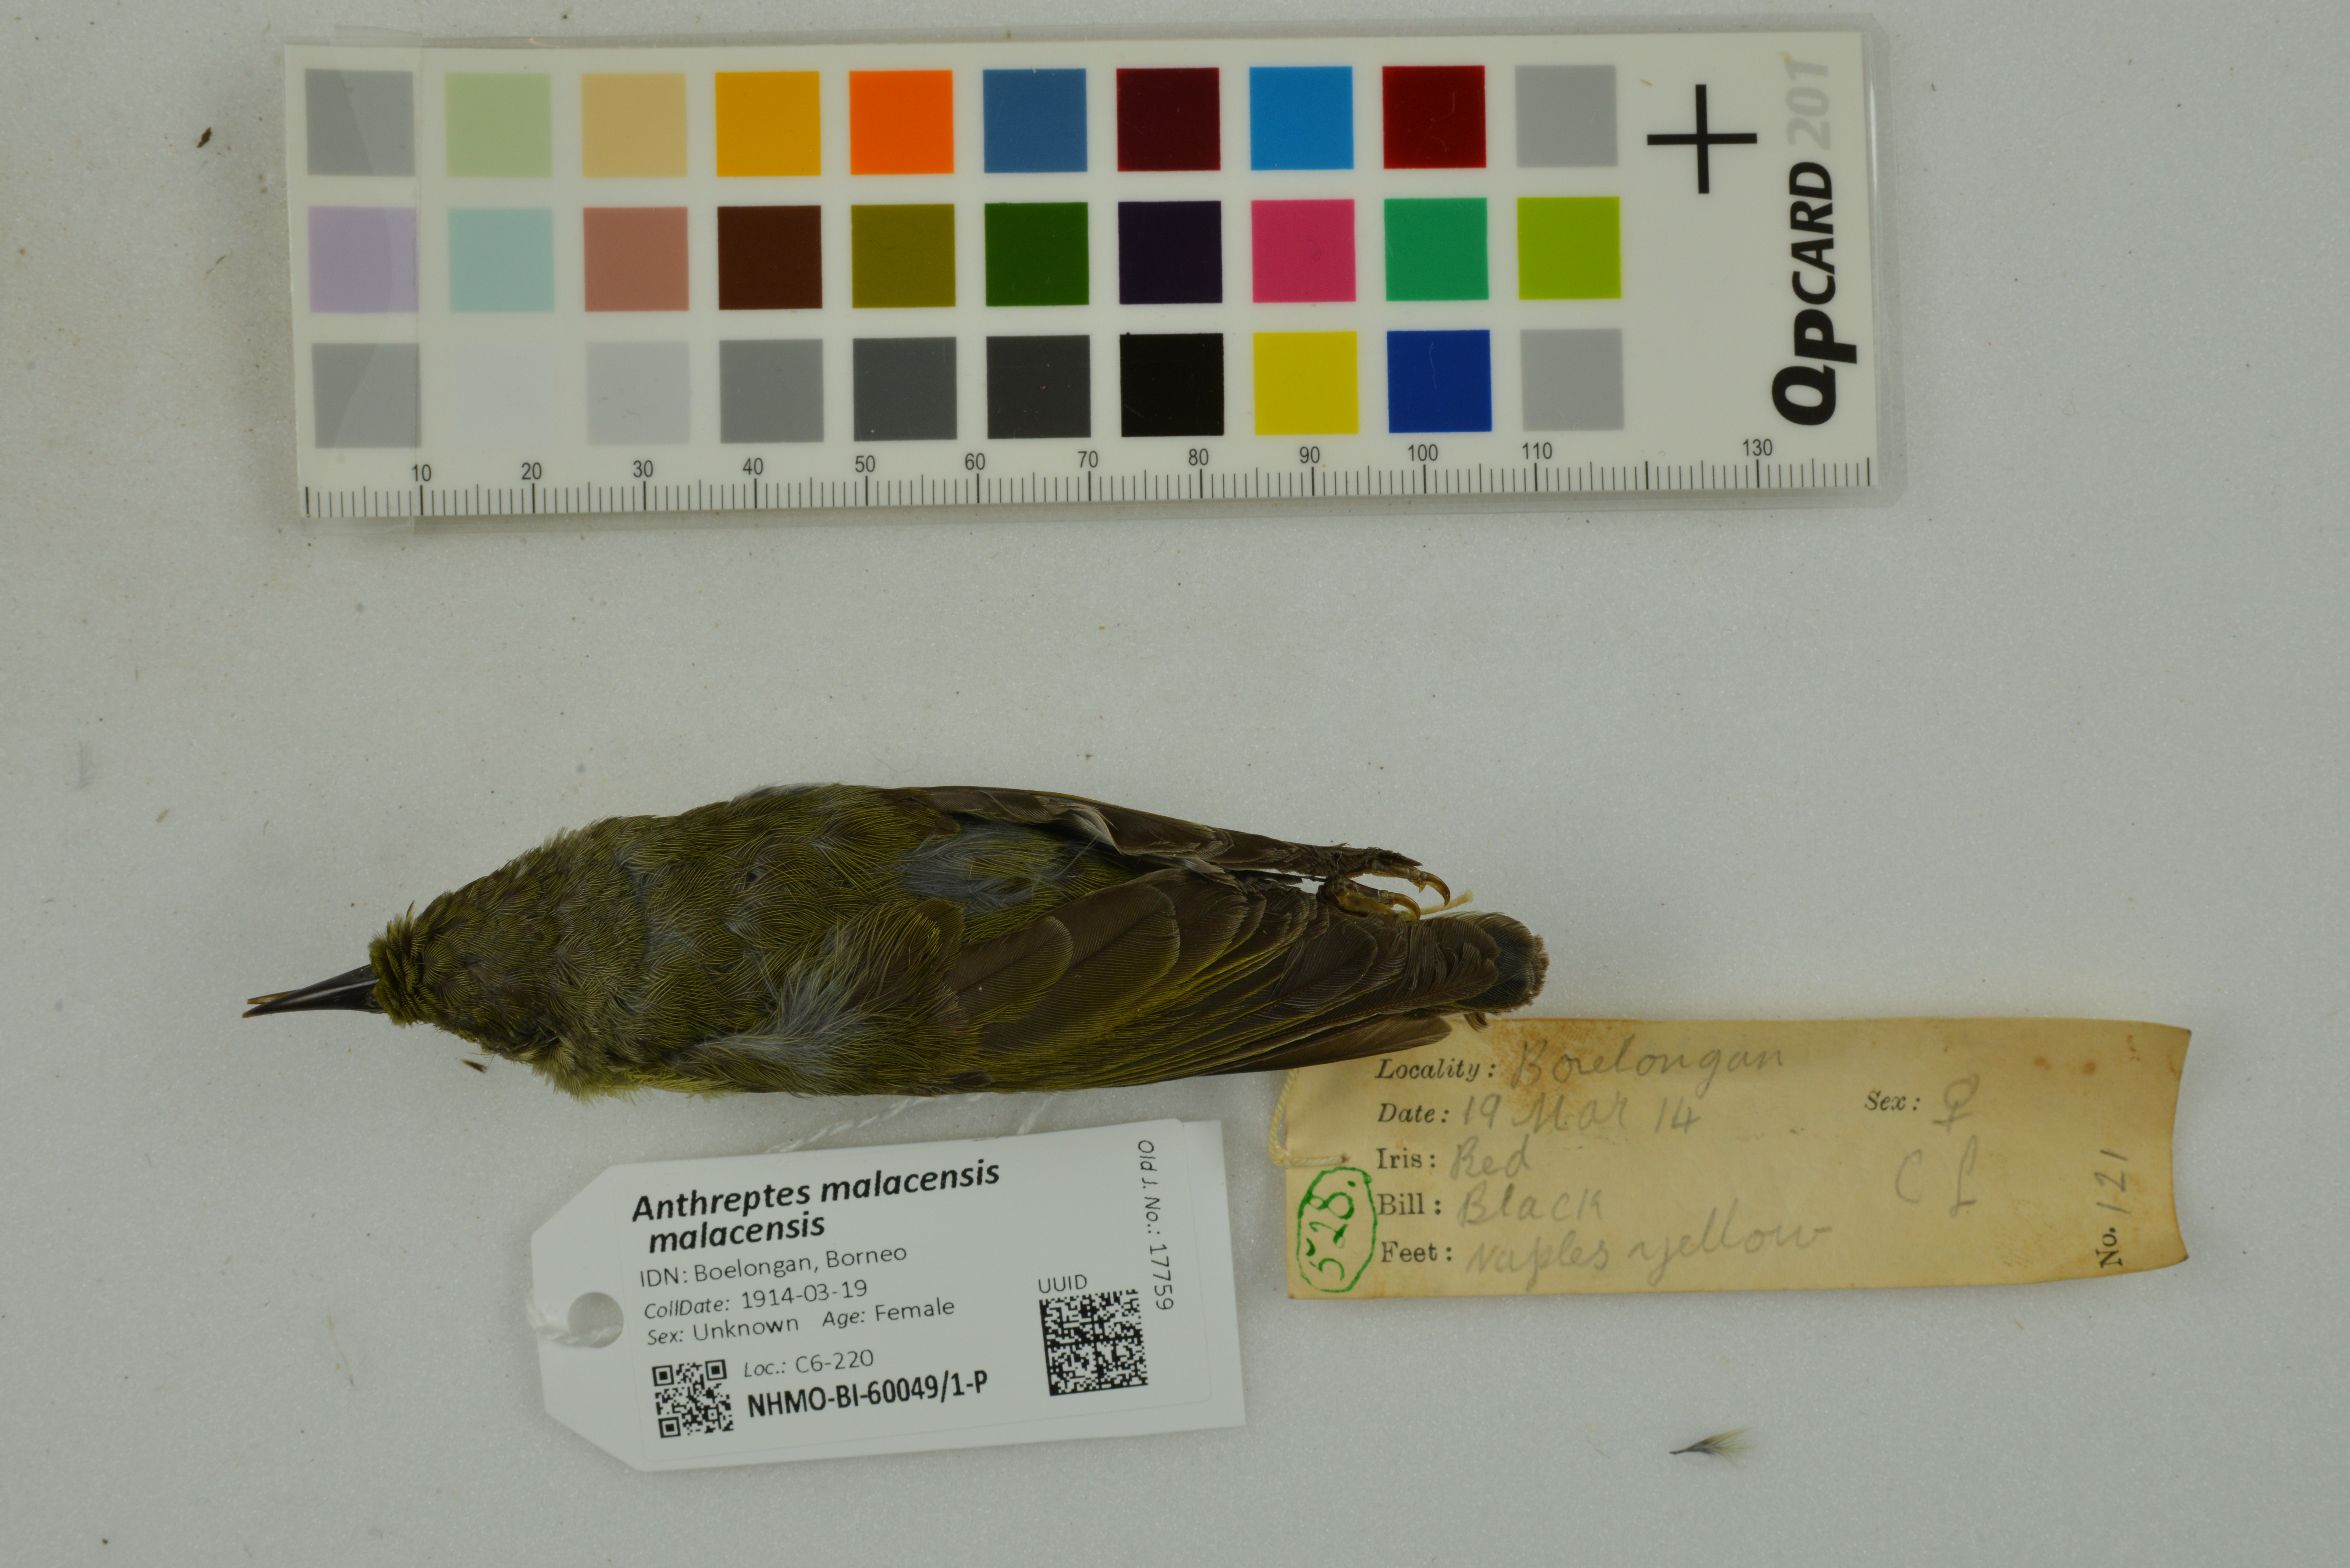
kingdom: Animalia
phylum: Chordata
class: Aves
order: Passeriformes
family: Nectariniidae
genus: Anthreptes
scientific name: Anthreptes malacensis
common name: Brown-throated sunbird
